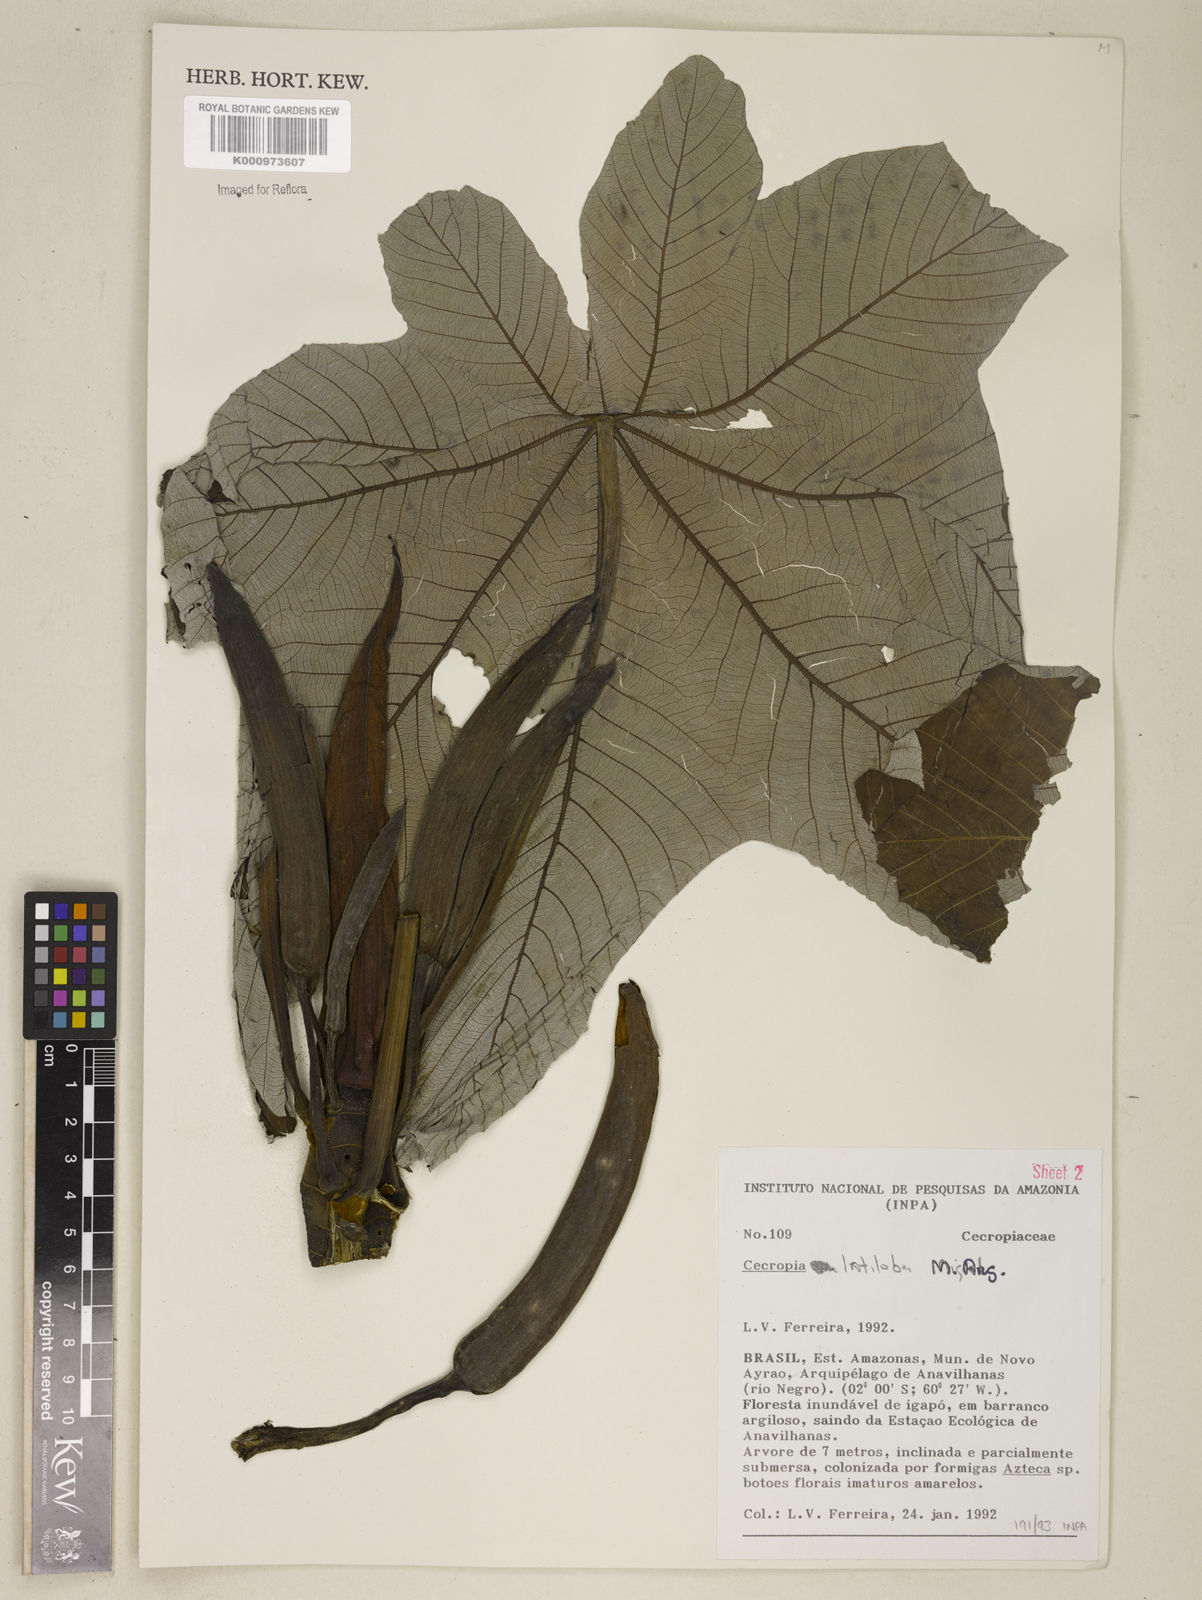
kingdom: Plantae
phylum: Tracheophyta
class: Magnoliopsida
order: Rosales
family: Urticaceae
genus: Cecropia
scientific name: Cecropia latiloba
